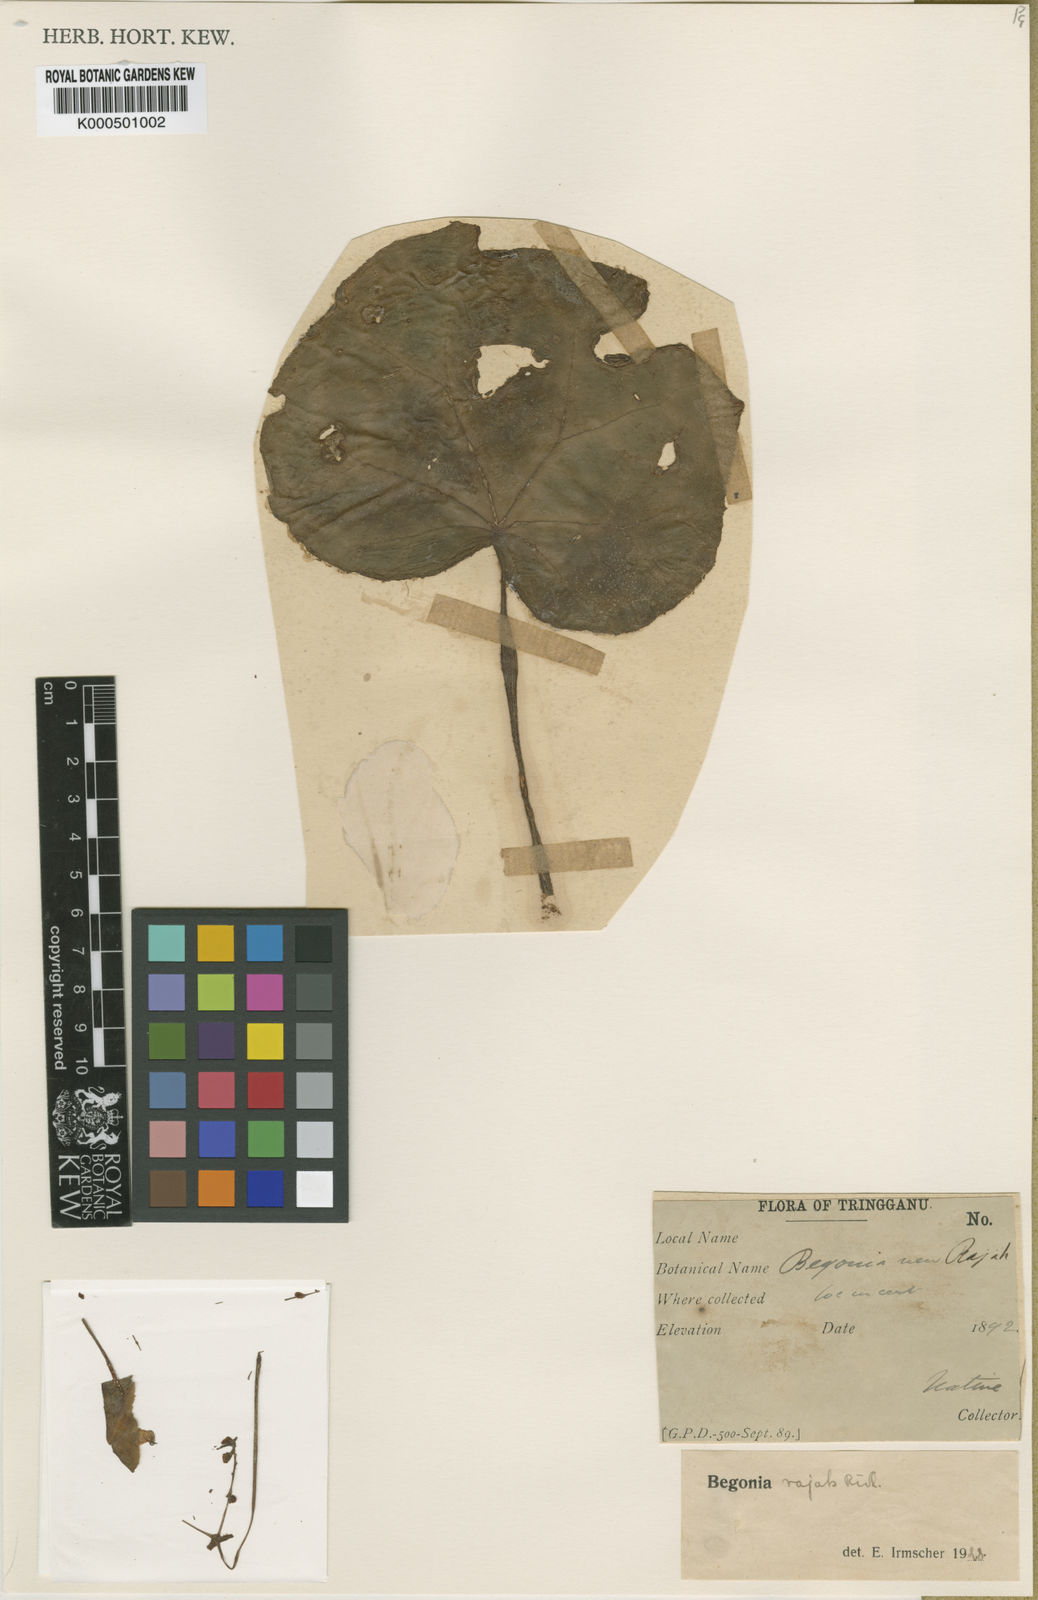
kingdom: Plantae
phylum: Tracheophyta
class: Magnoliopsida
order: Cucurbitales
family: Begoniaceae
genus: Begonia
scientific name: Begonia rajah
